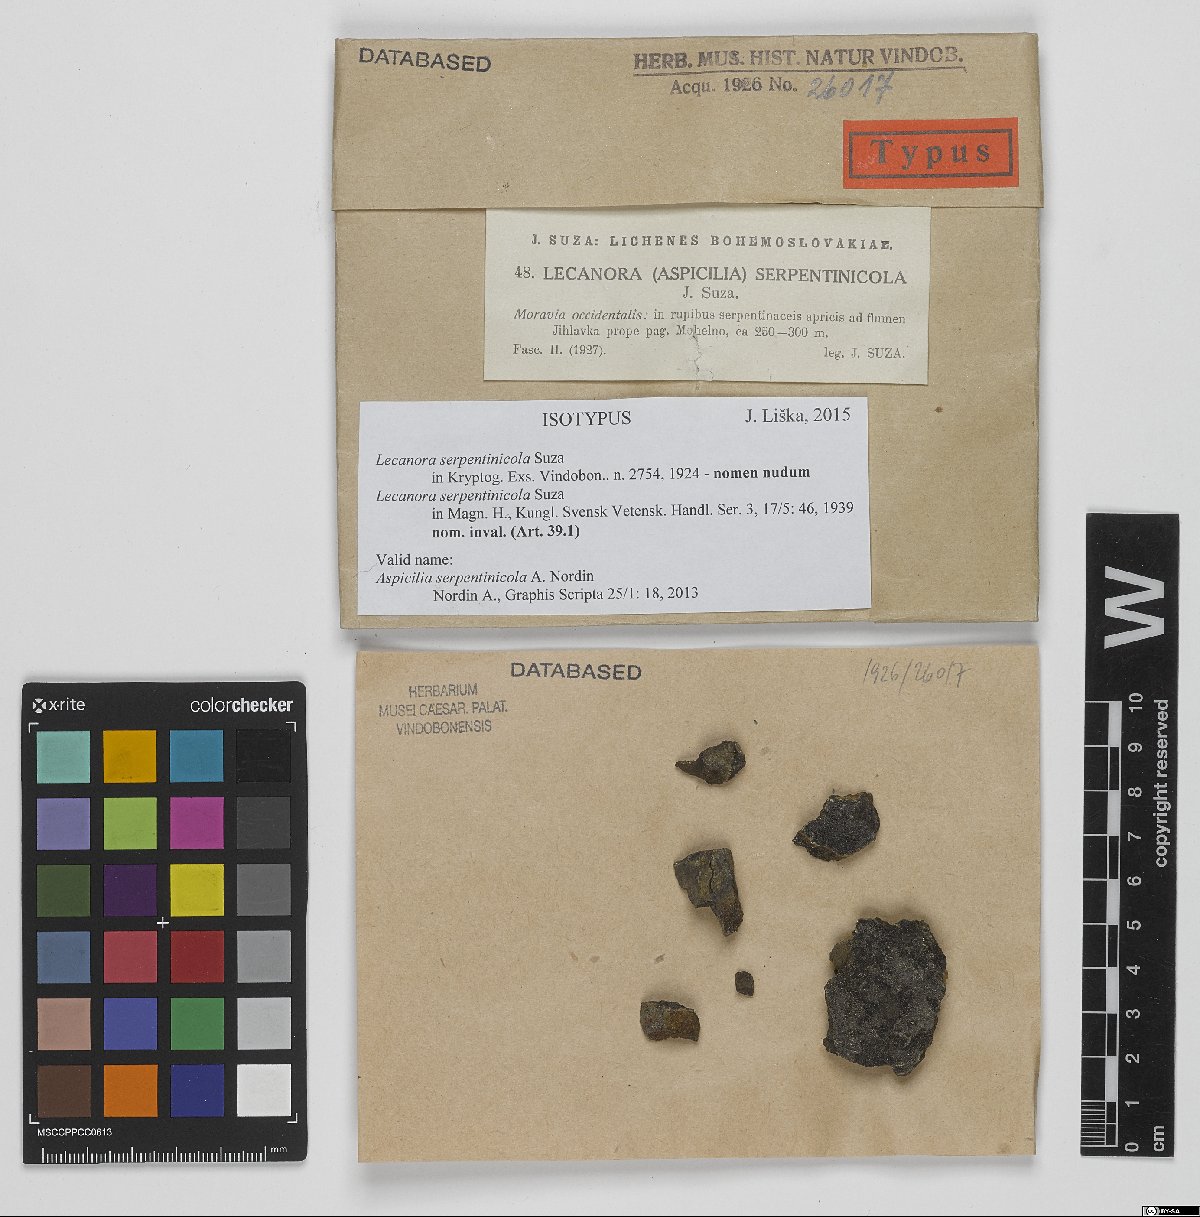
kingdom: Fungi
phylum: Ascomycota
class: Lecanoromycetes
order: Pertusariales
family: Megasporaceae
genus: Aspicilia
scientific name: Aspicilia serpentinicola
